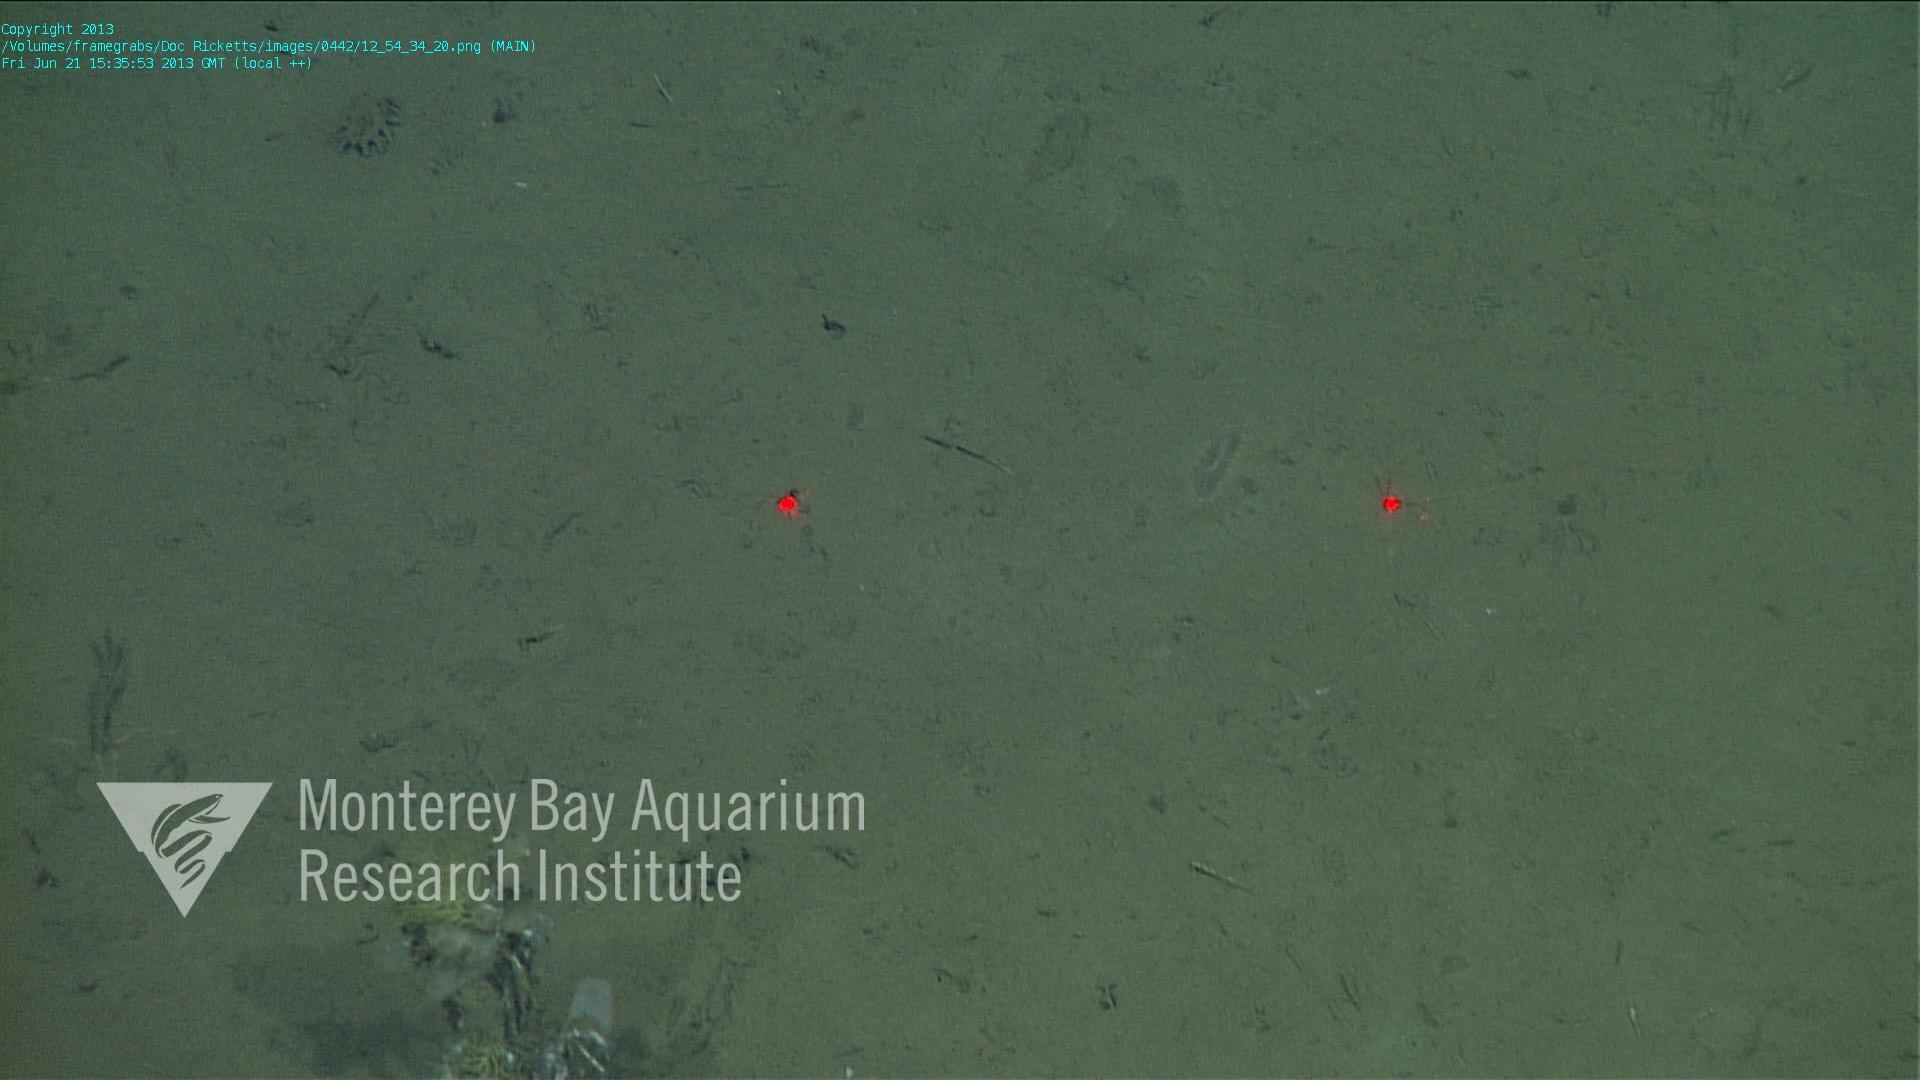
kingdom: Animalia
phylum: Porifera
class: Hexactinellida
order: Lyssacinosida
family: Rossellidae
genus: Bathydorus
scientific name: Bathydorus spinosus
